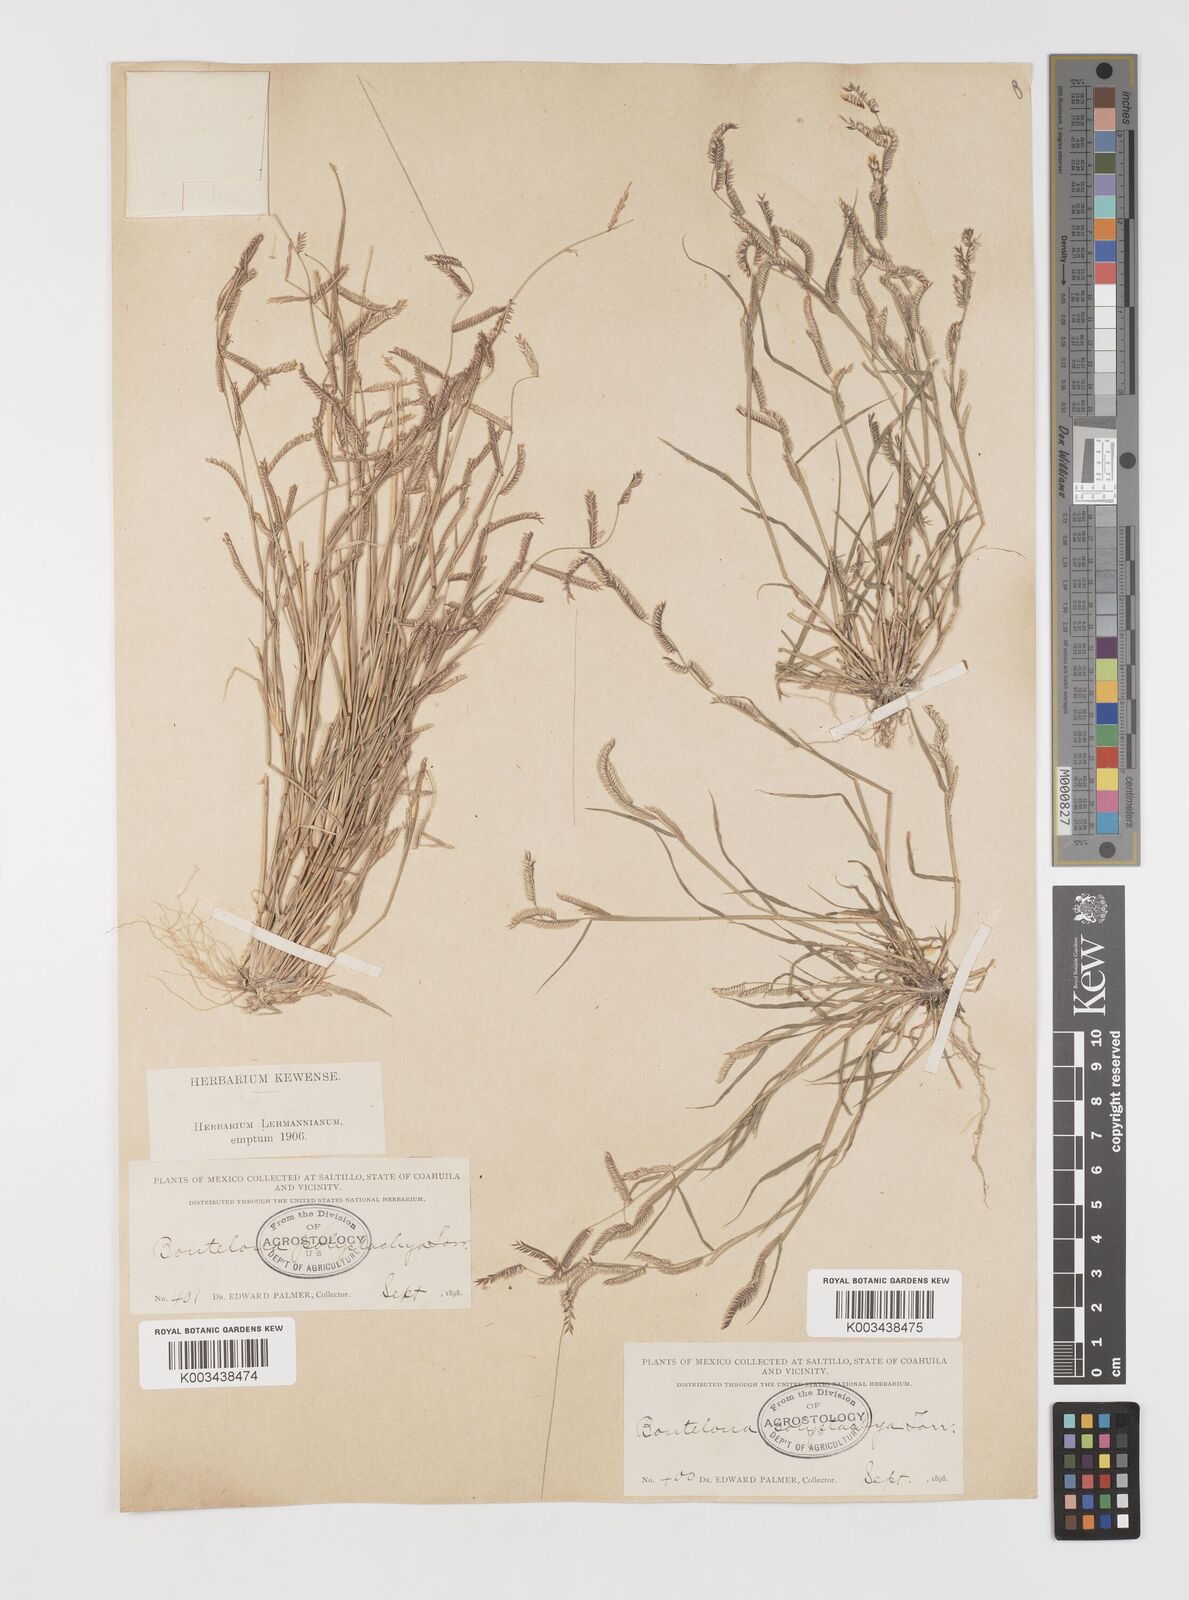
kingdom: Plantae
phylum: Tracheophyta
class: Liliopsida
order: Poales
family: Poaceae
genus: Bouteloua
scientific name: Bouteloua
